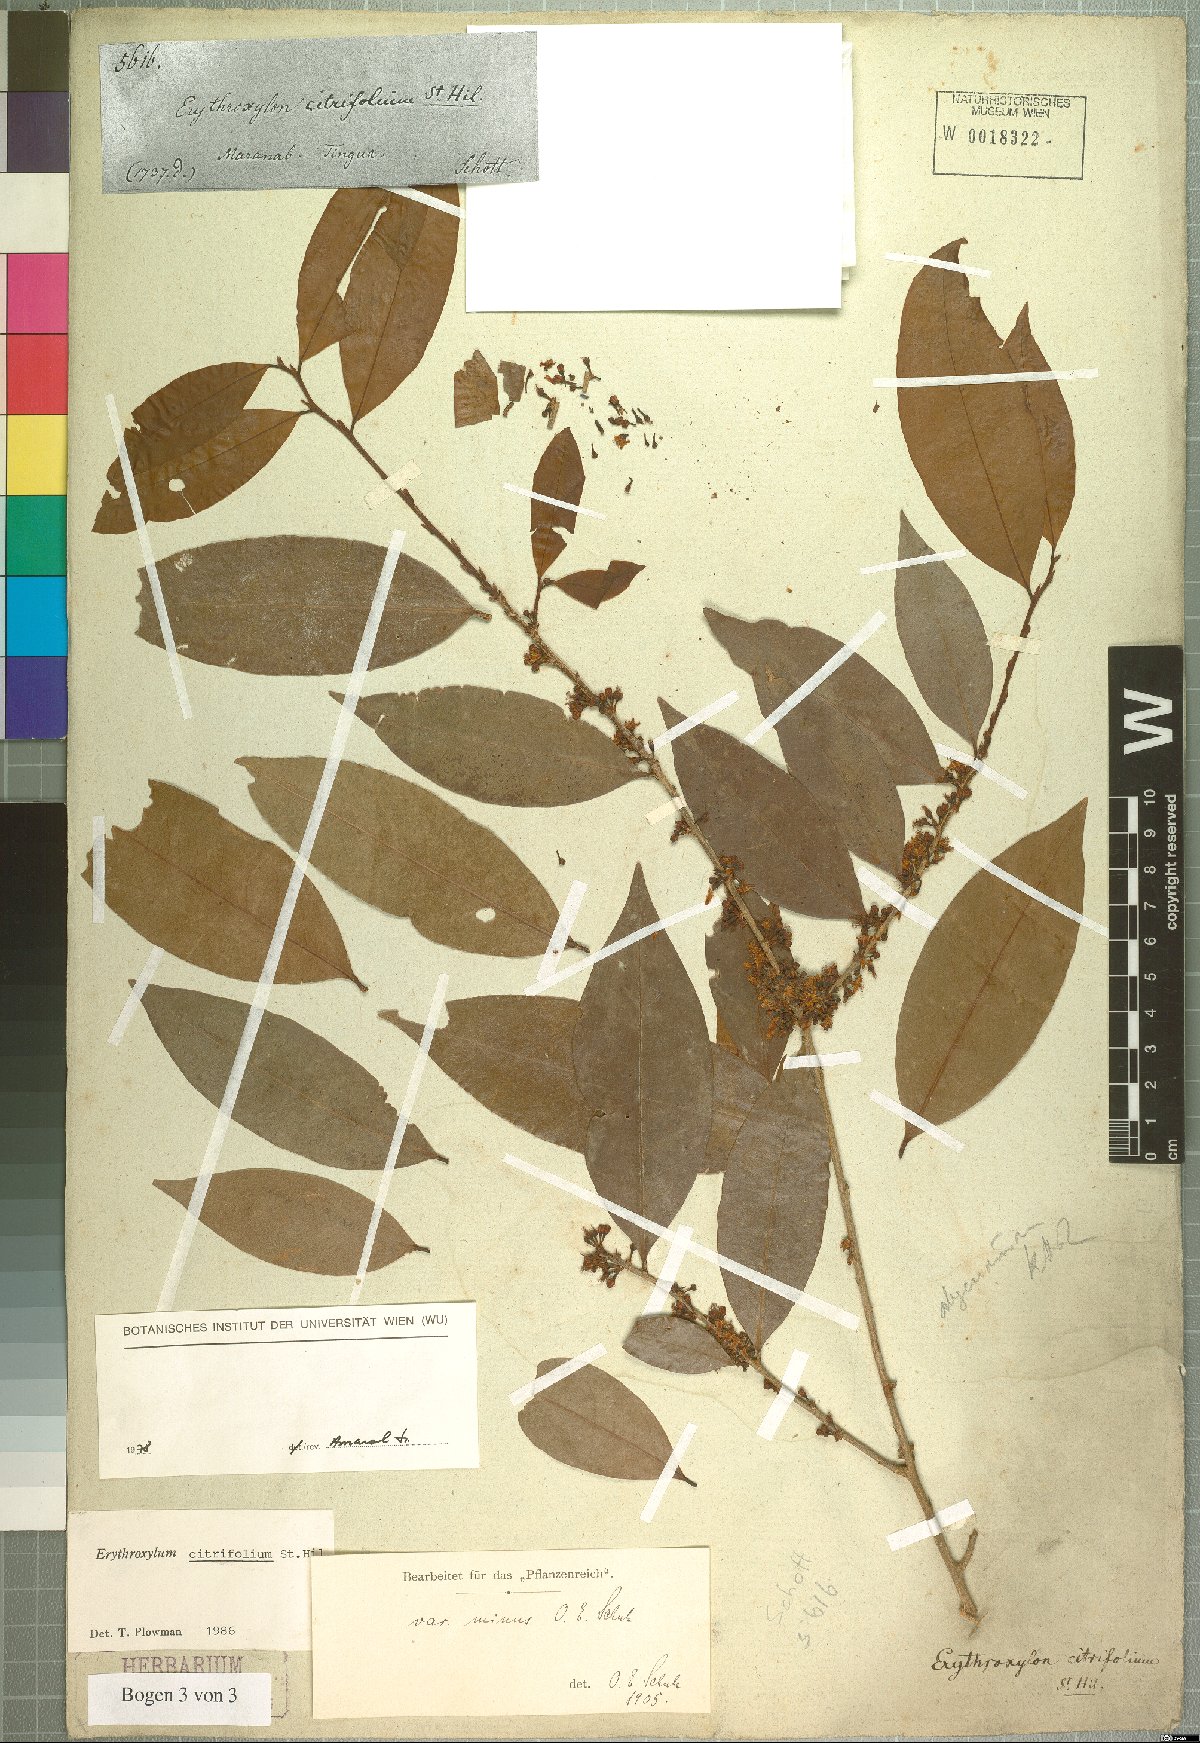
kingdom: Plantae
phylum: Tracheophyta
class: Magnoliopsida
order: Malpighiales
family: Erythroxylaceae
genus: Erythroxylum
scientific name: Erythroxylum citrifolium
